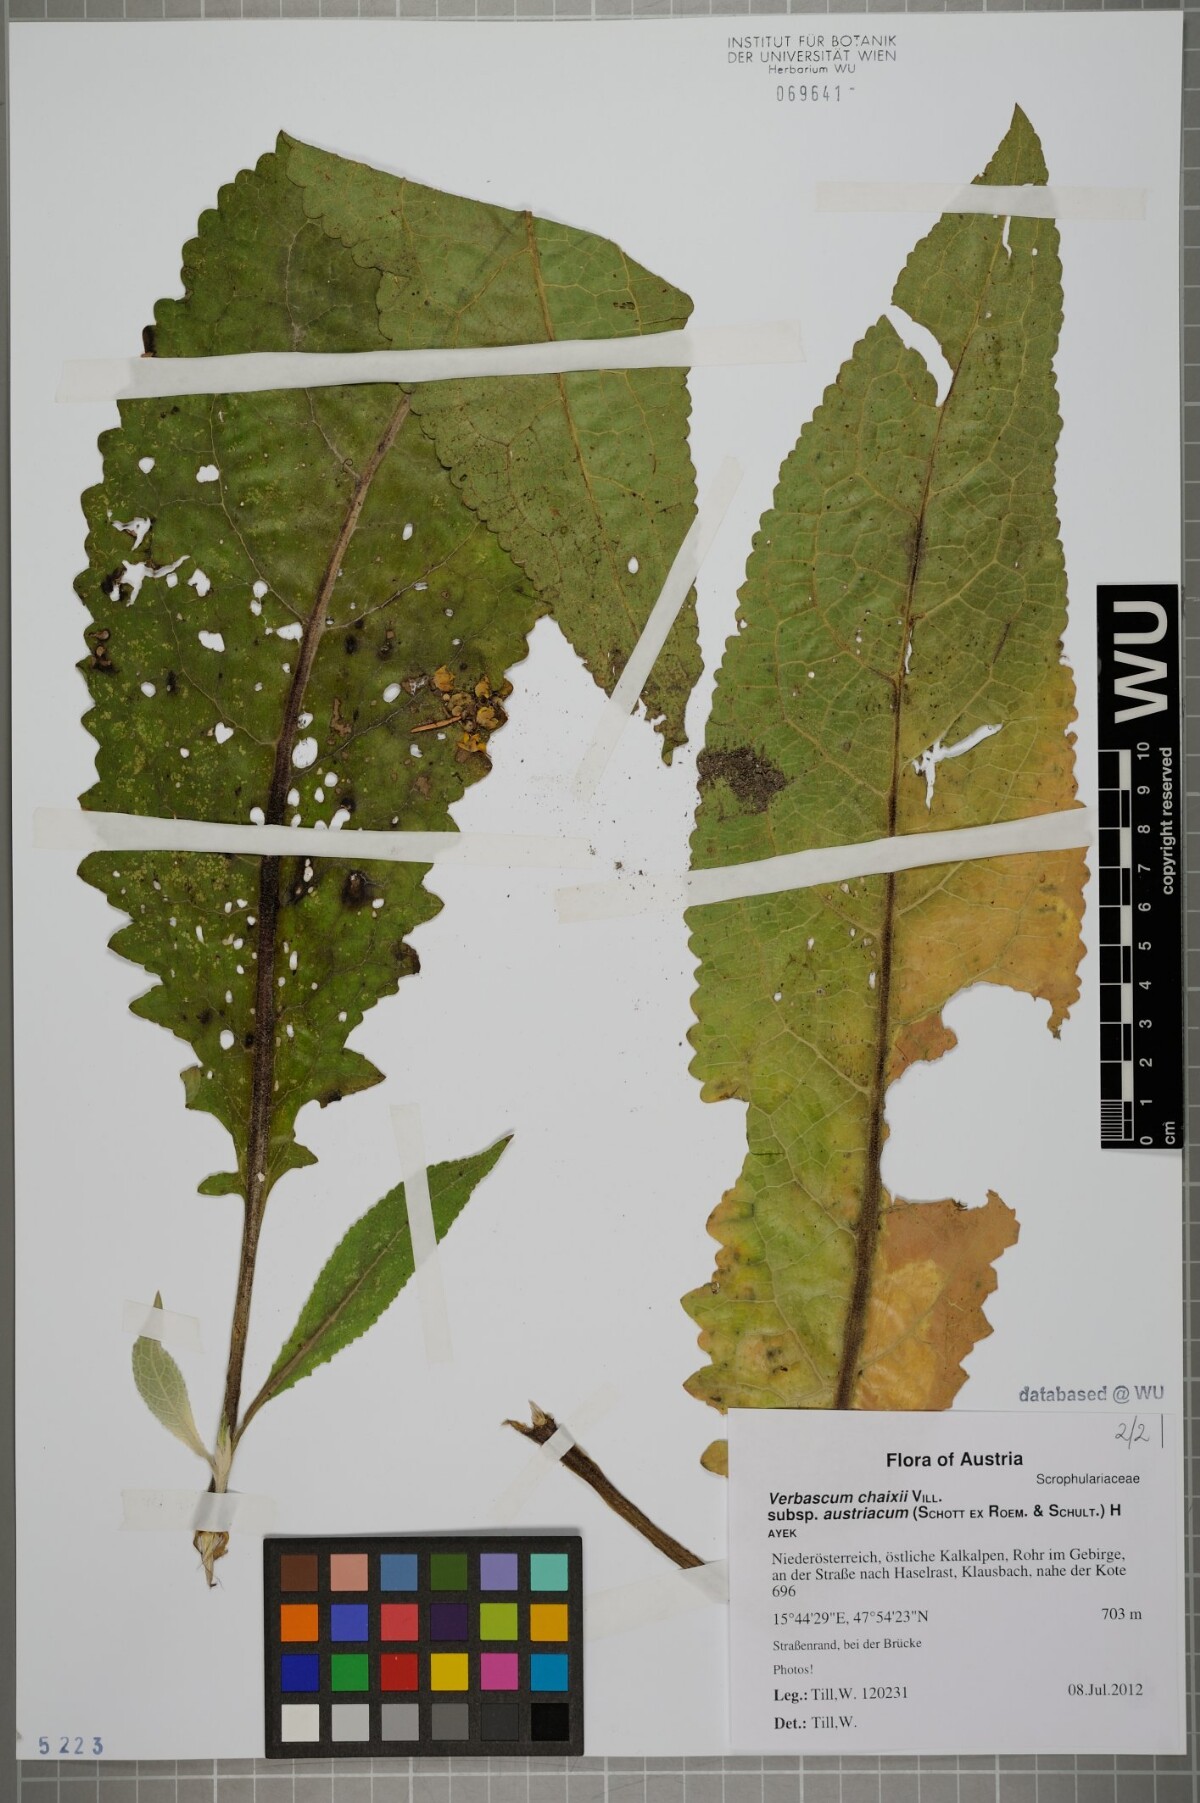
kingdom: Plantae
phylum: Tracheophyta
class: Magnoliopsida
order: Lamiales
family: Scrophulariaceae
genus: Verbascum
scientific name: Verbascum chaixii
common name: Nettle-leaved mullein
